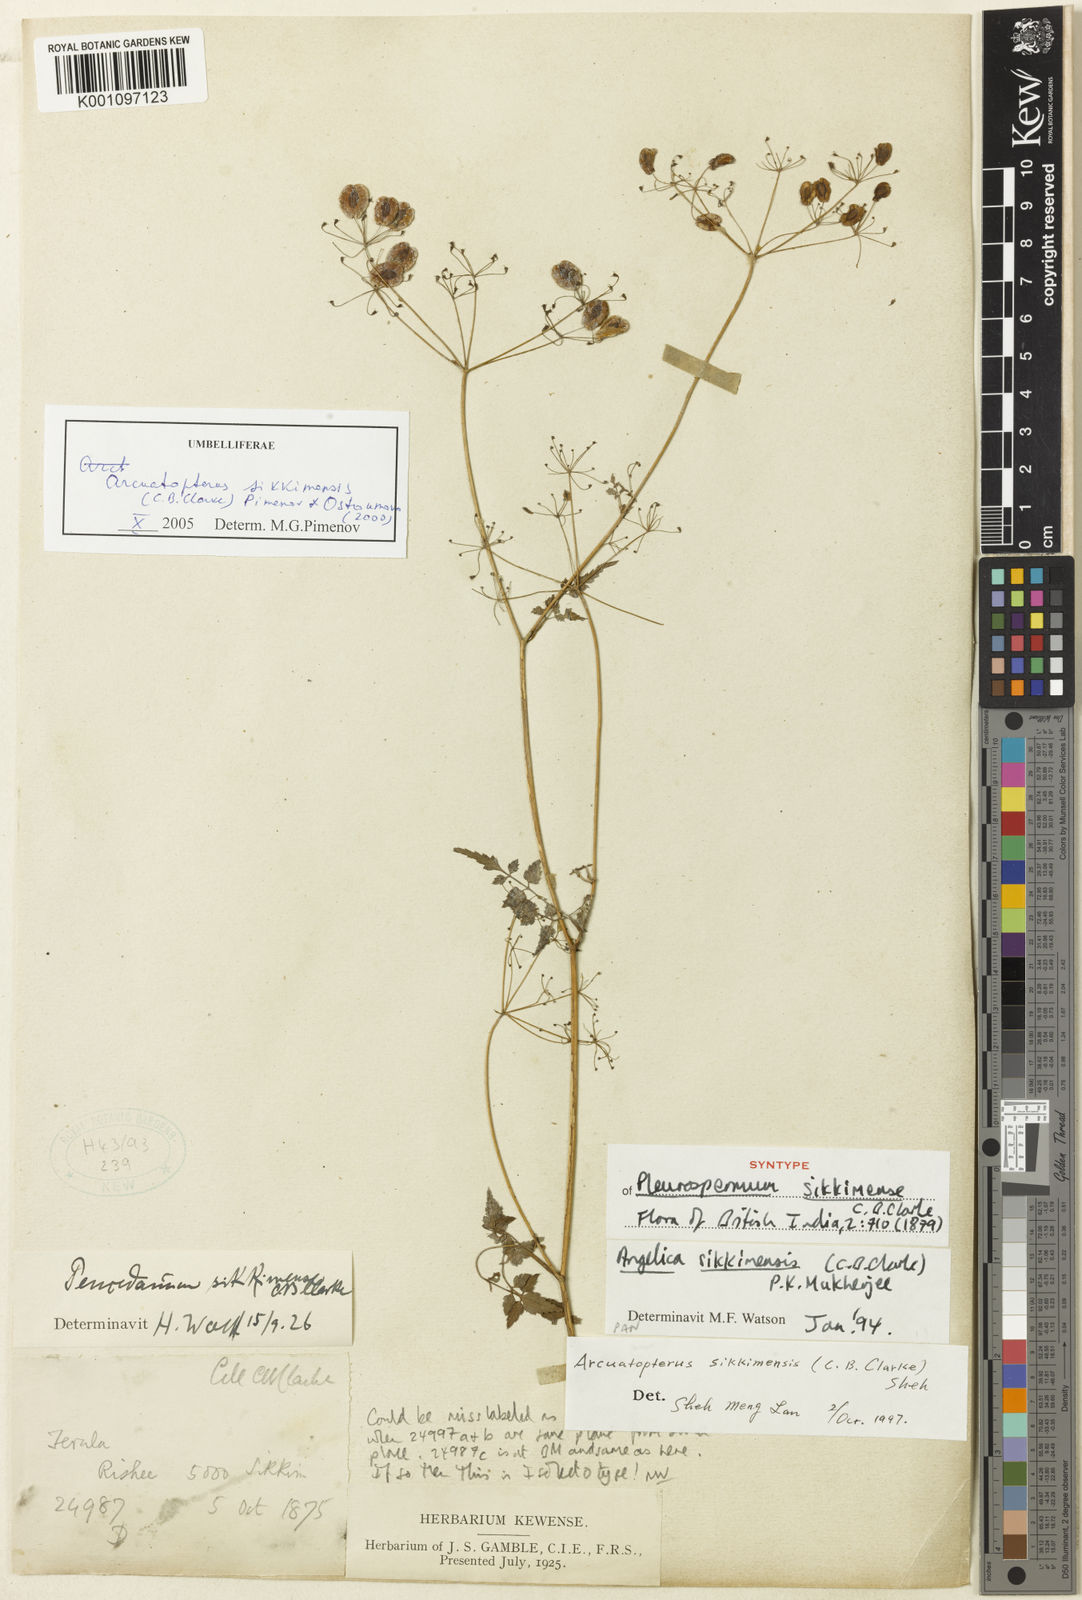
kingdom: Plantae
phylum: Tracheophyta
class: Magnoliopsida
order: Apiales
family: Apiaceae
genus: Arcuatopterus
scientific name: Arcuatopterus sikkimensis
